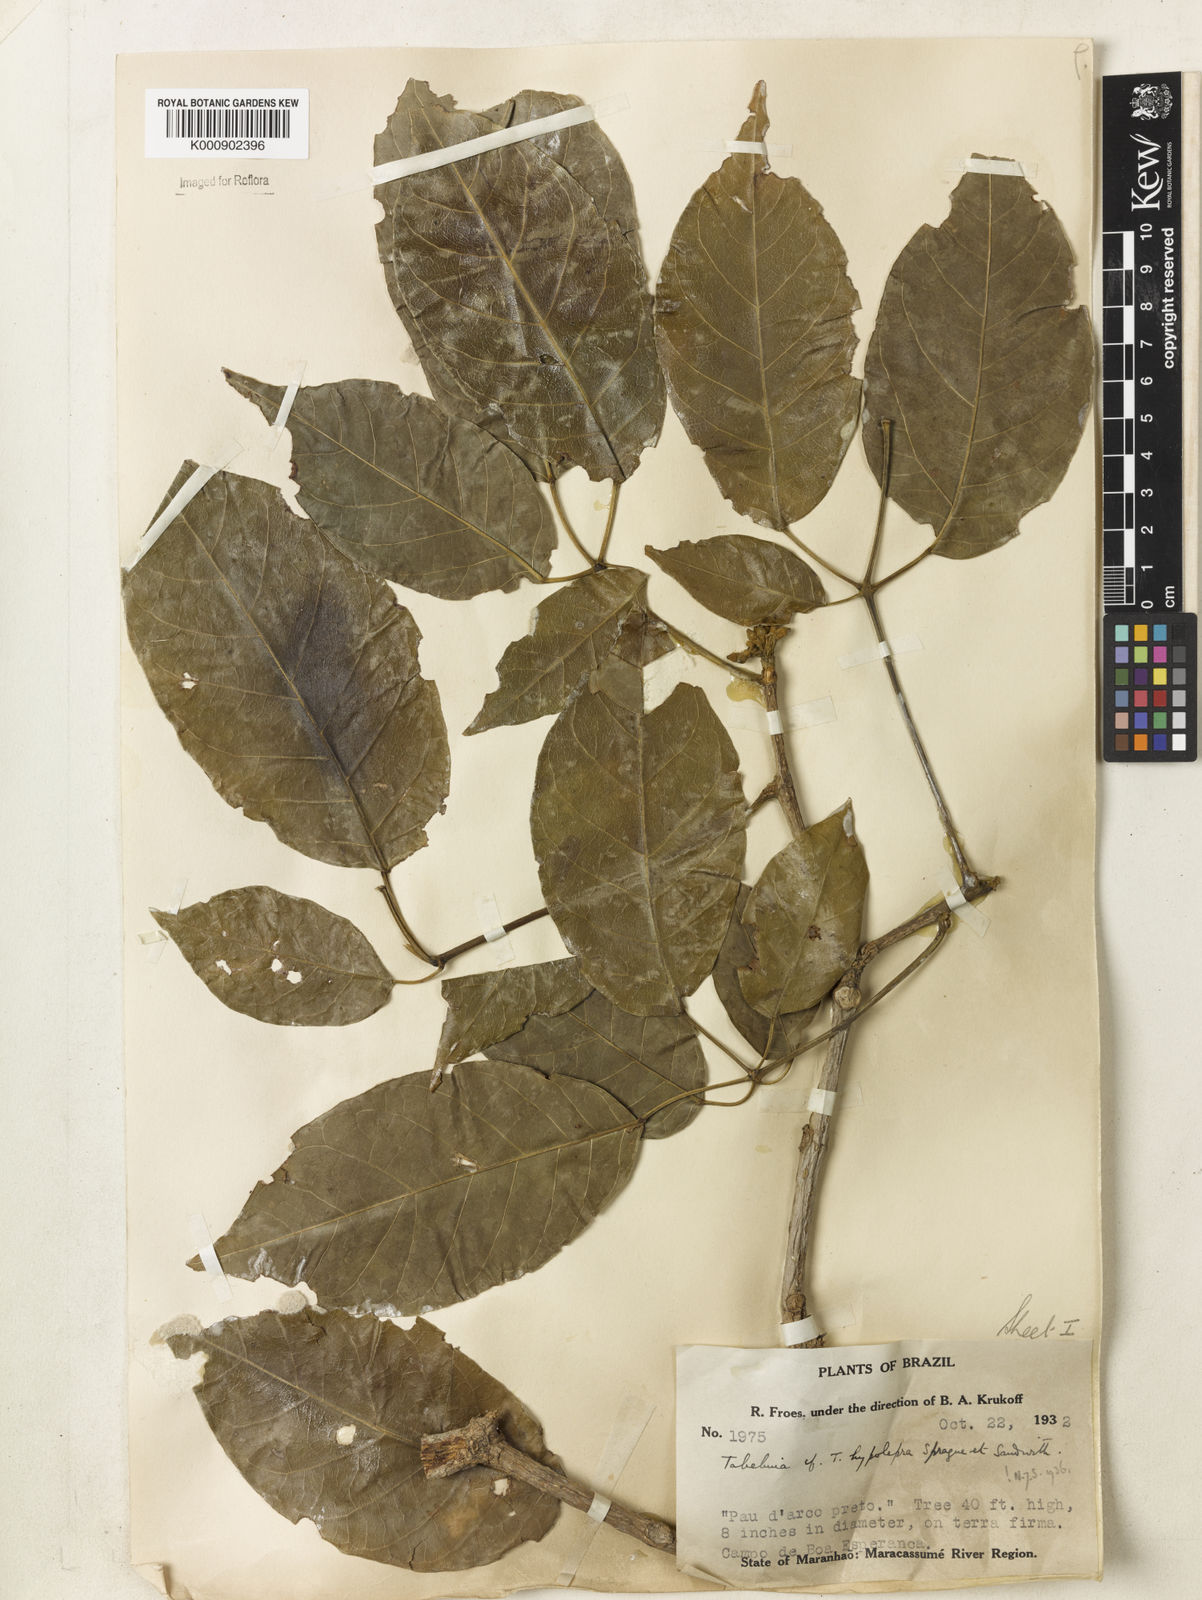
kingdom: Plantae
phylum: Tracheophyta
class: Magnoliopsida
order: Lamiales
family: Bignoniaceae
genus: Handroanthus
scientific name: Handroanthus capitatus
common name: Trumpet trees
